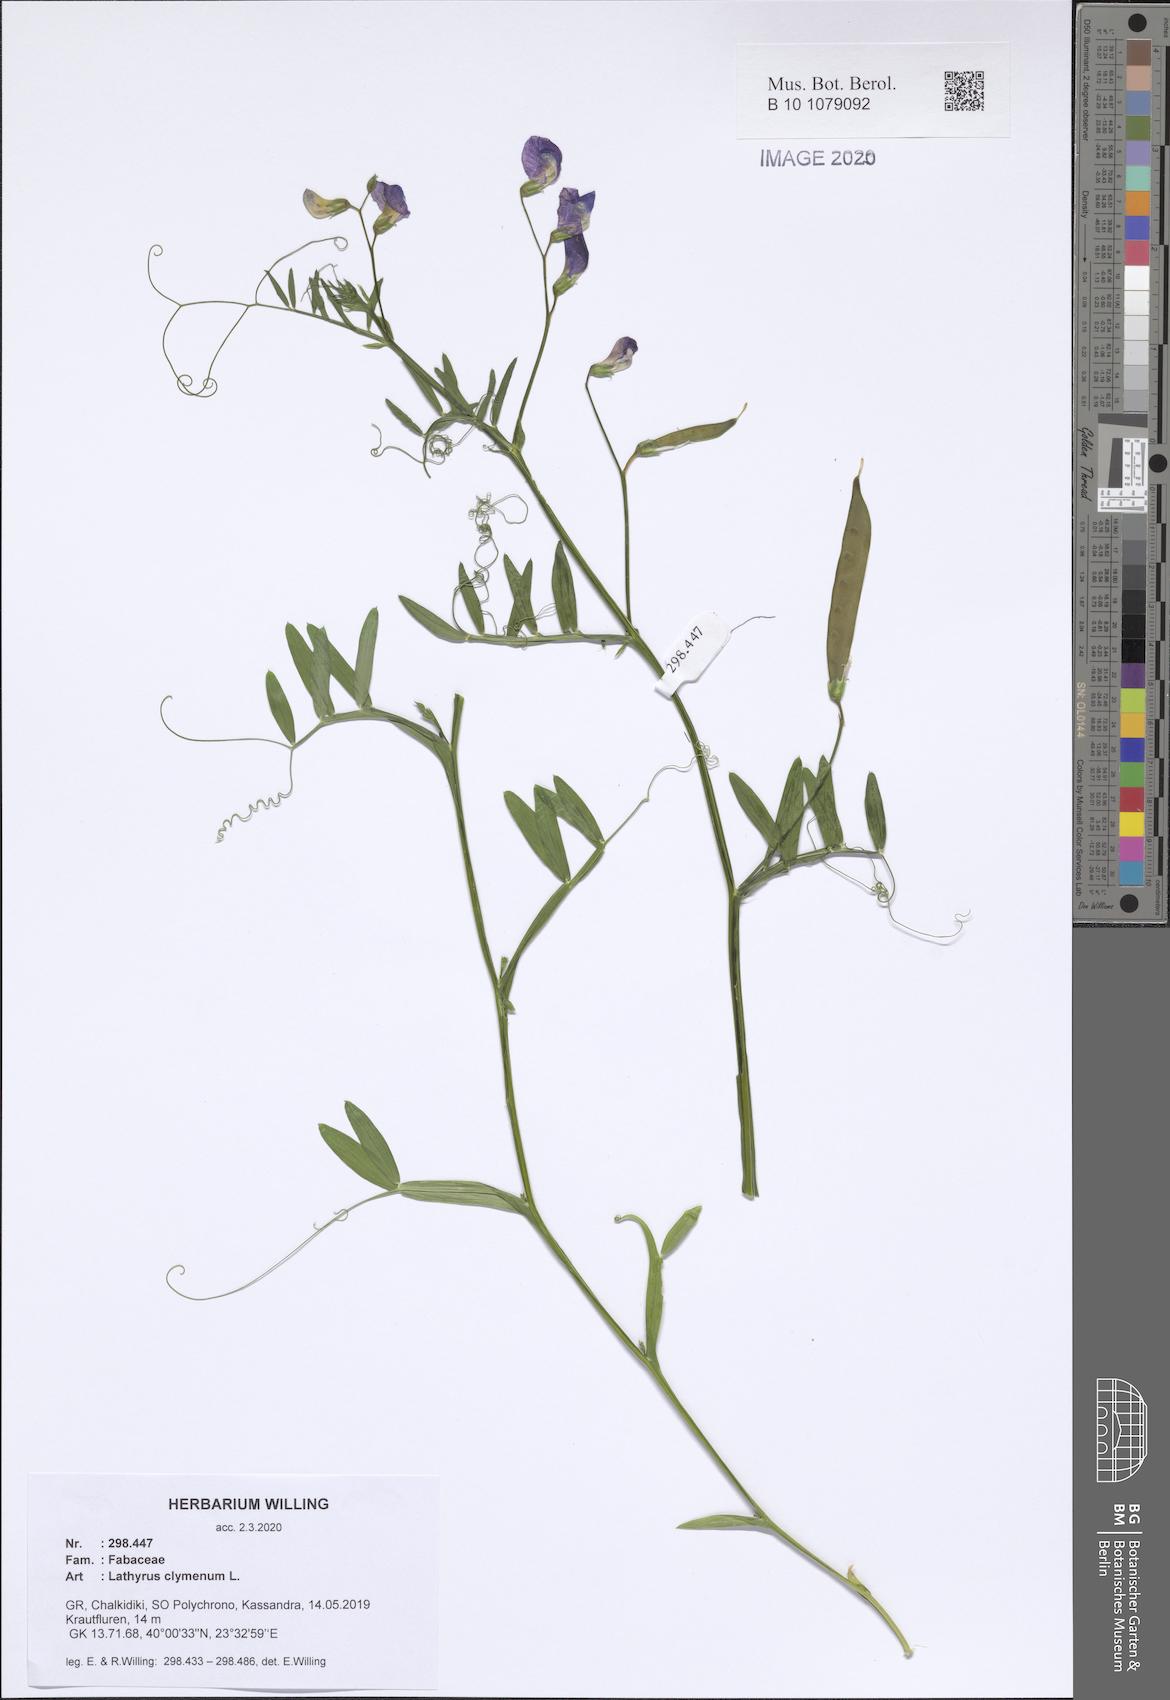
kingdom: Plantae
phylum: Tracheophyta
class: Magnoliopsida
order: Fabales
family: Fabaceae
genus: Lathyrus
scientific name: Lathyrus clymenum
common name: Spanish vetchling
